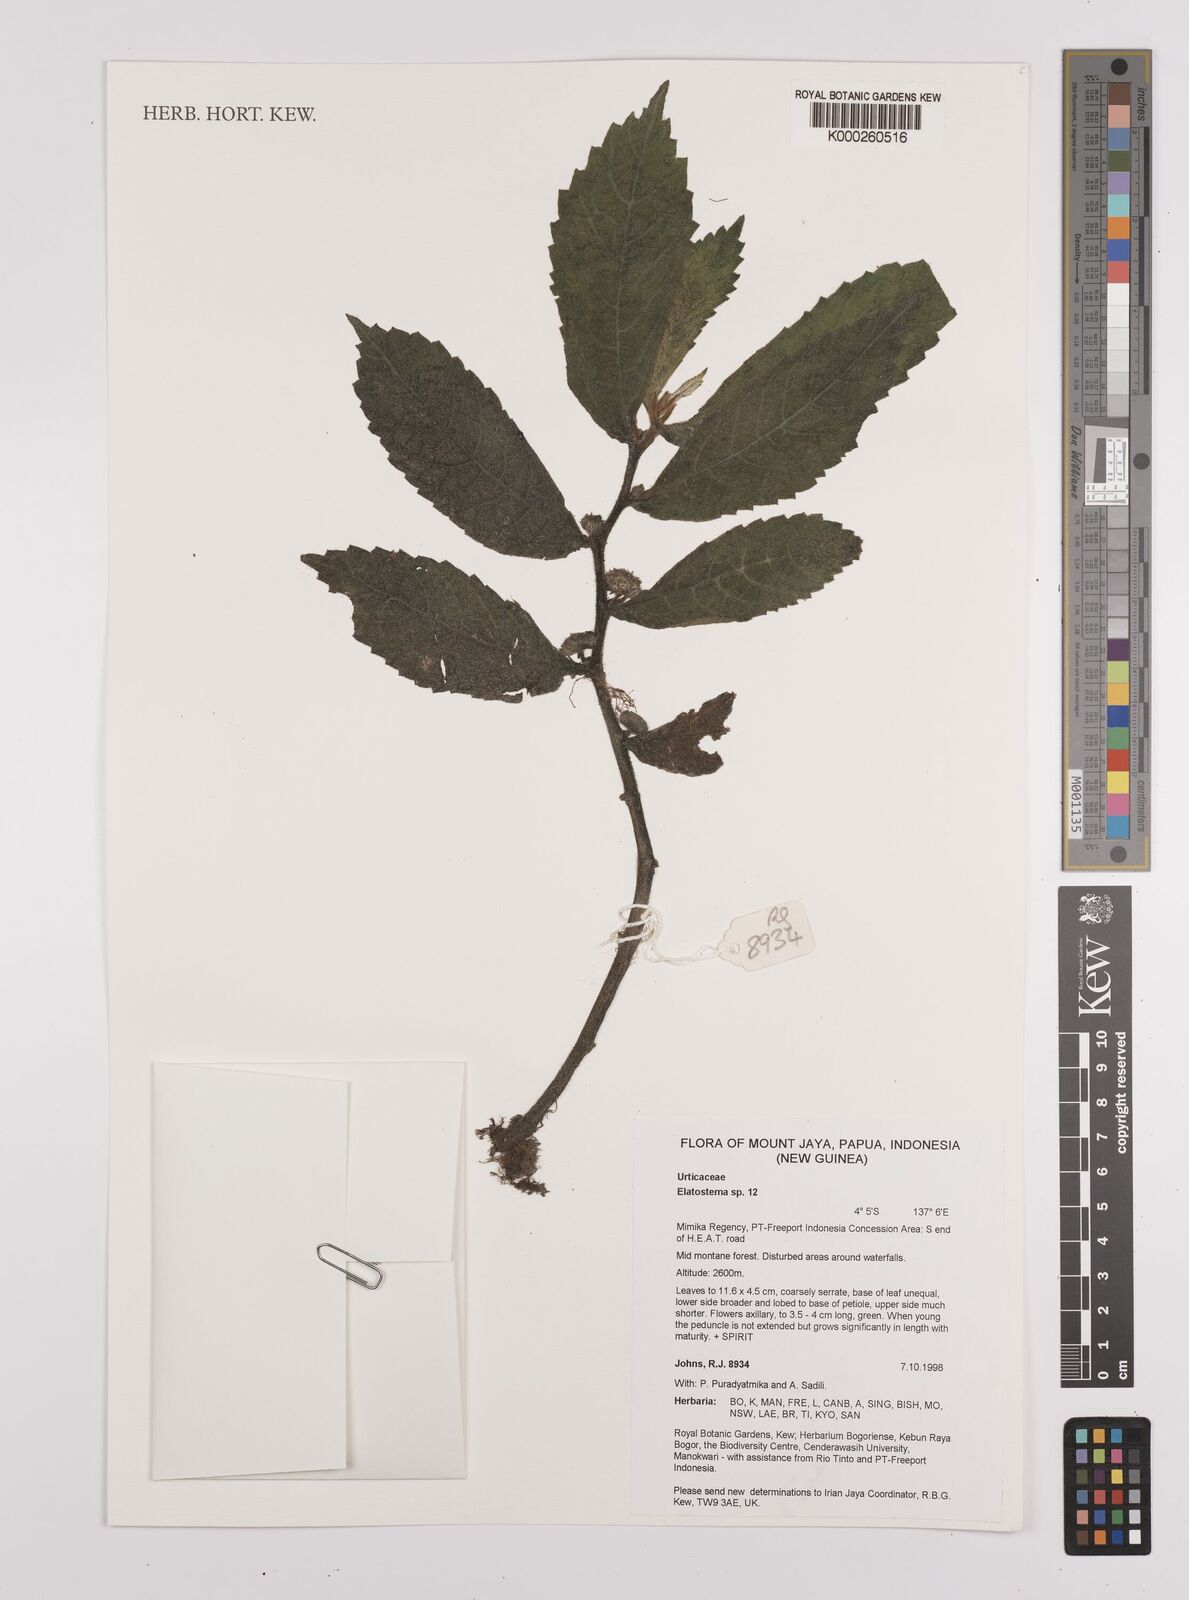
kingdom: Plantae
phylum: Tracheophyta
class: Magnoliopsida
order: Rosales
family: Urticaceae
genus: Elatostema
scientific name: Elatostema
